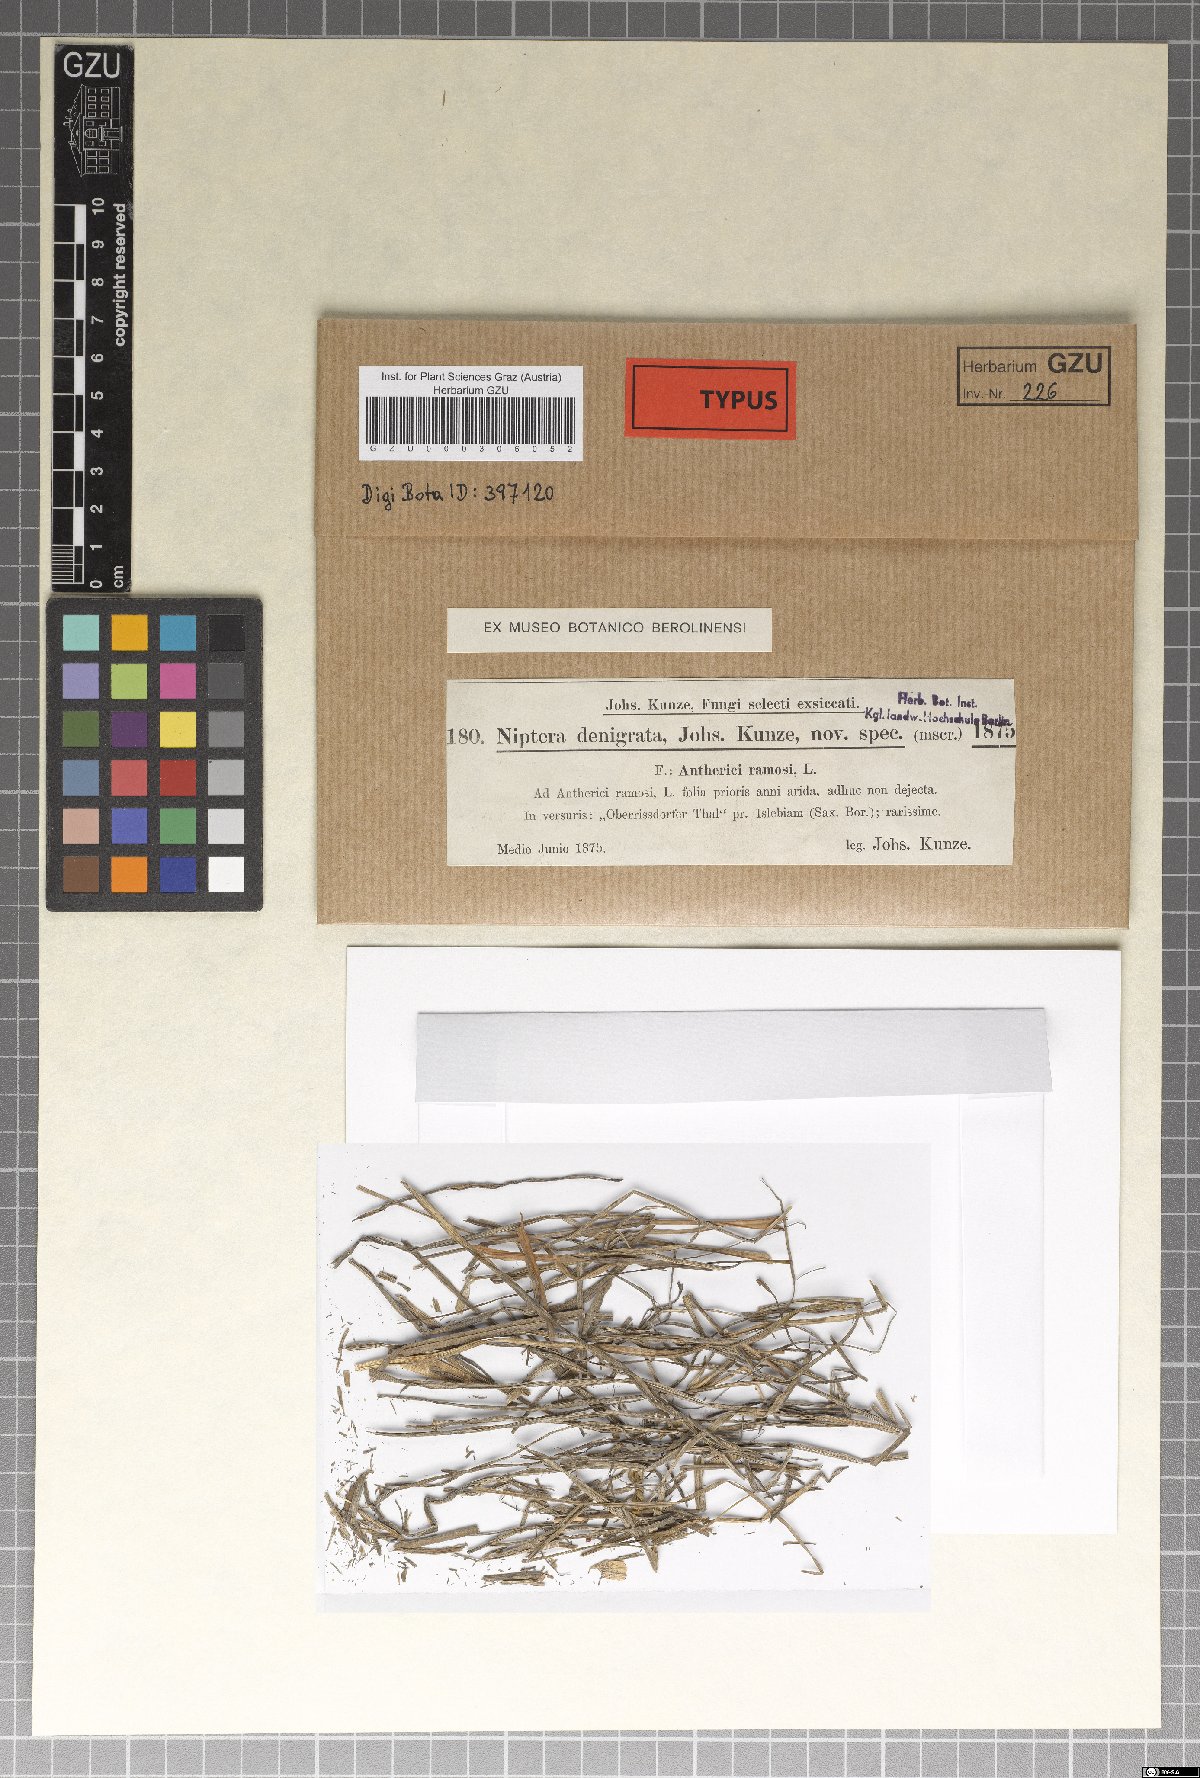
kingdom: Fungi
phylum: Ascomycota
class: Leotiomycetes
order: Helotiales
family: Drepanopezizaceae
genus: Pseudopeziza
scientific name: Pseudopeziza denigrata
